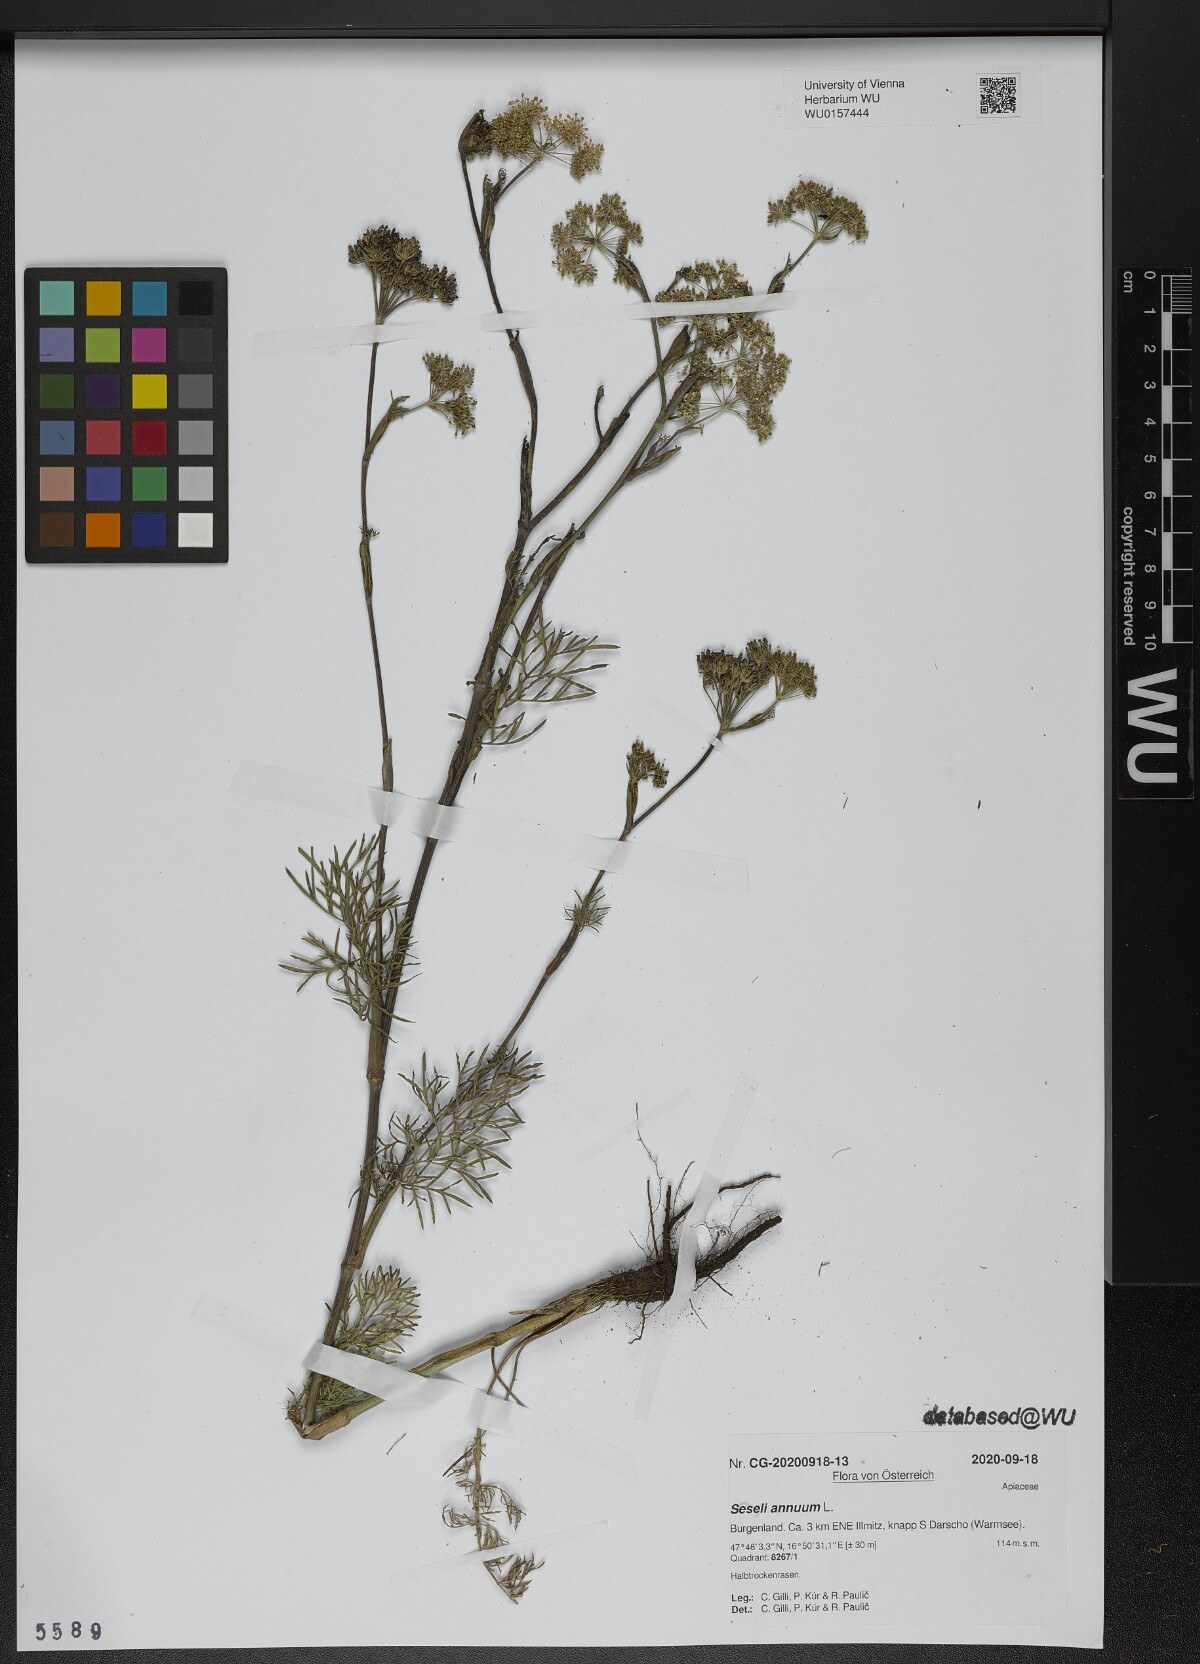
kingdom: Plantae
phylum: Tracheophyta
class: Magnoliopsida
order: Apiales
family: Apiaceae
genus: Seseli
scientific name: Seseli annuum
